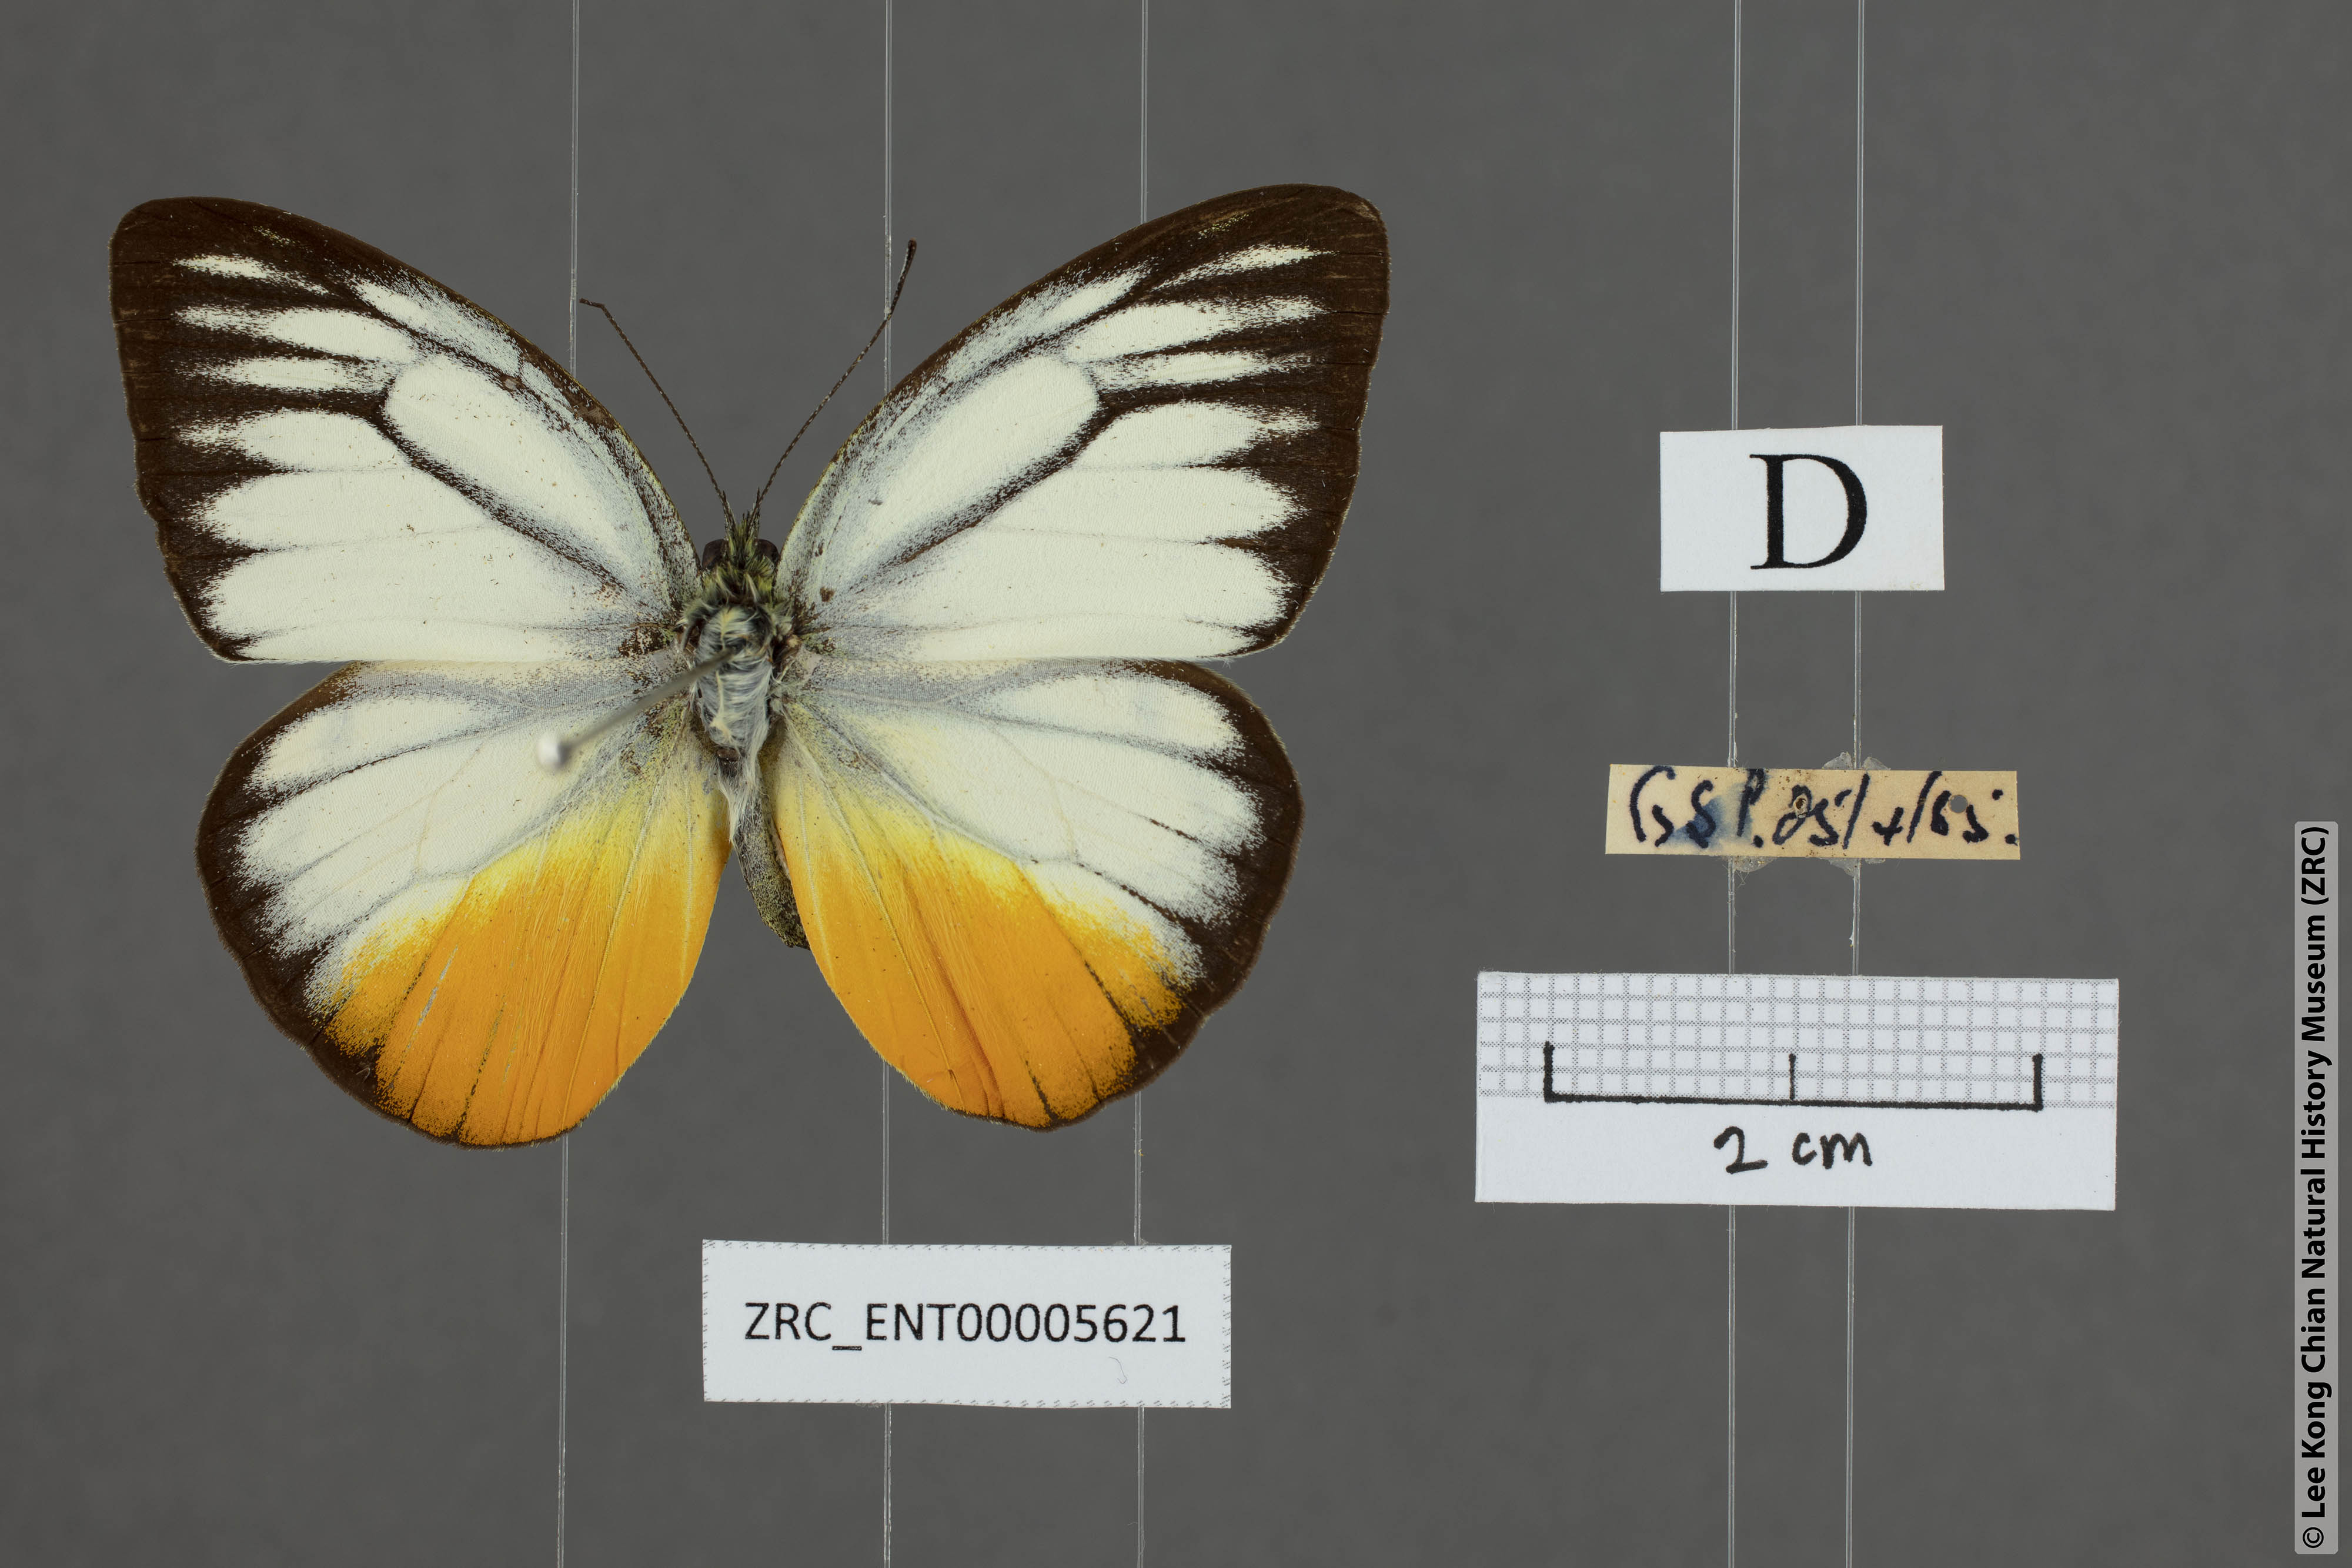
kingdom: Animalia
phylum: Arthropoda
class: Insecta
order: Lepidoptera
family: Pieridae
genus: Cepora
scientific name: Cepora iudith
